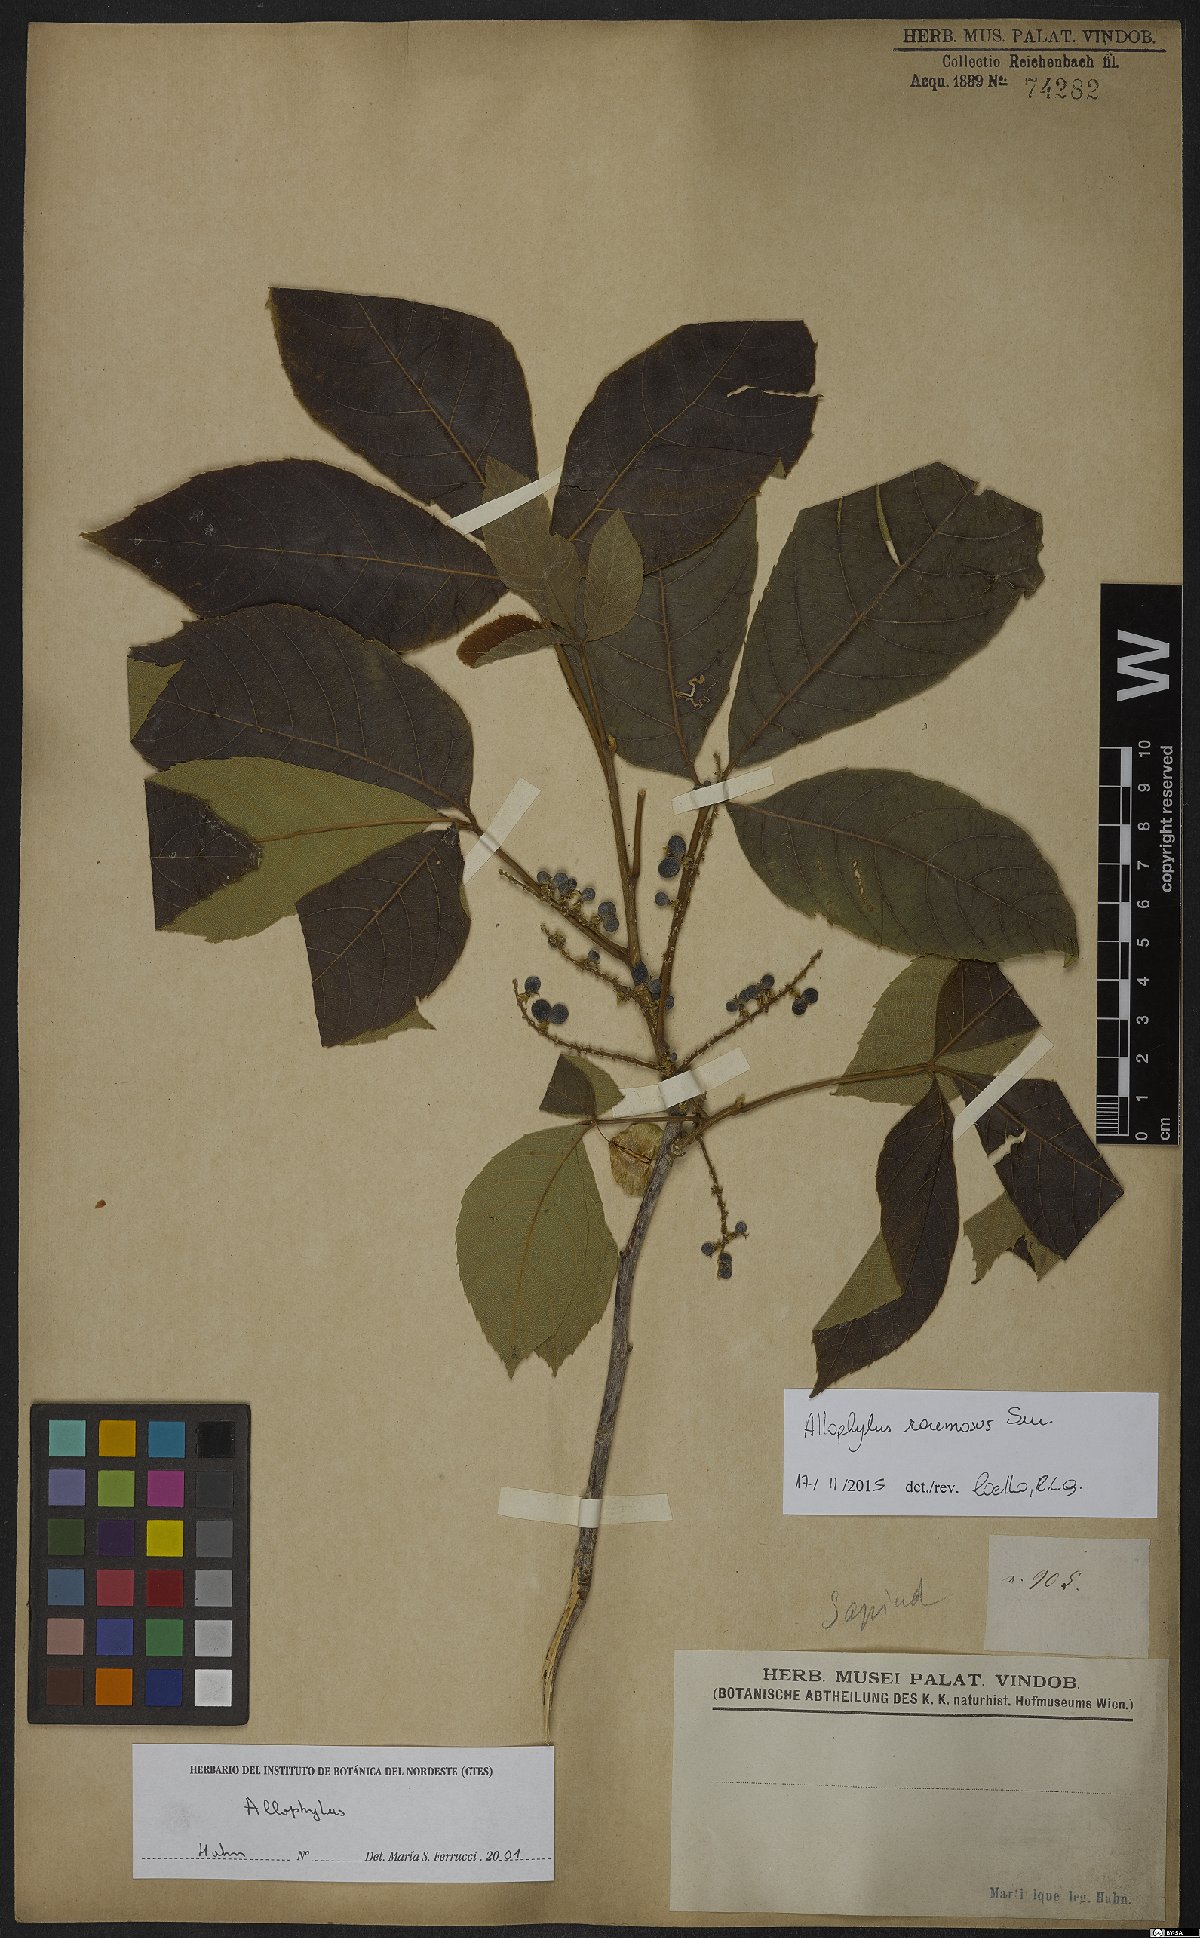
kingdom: Plantae
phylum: Tracheophyta
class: Magnoliopsida
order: Sapindales
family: Sapindaceae
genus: Allophylus
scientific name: Allophylus racemosus
